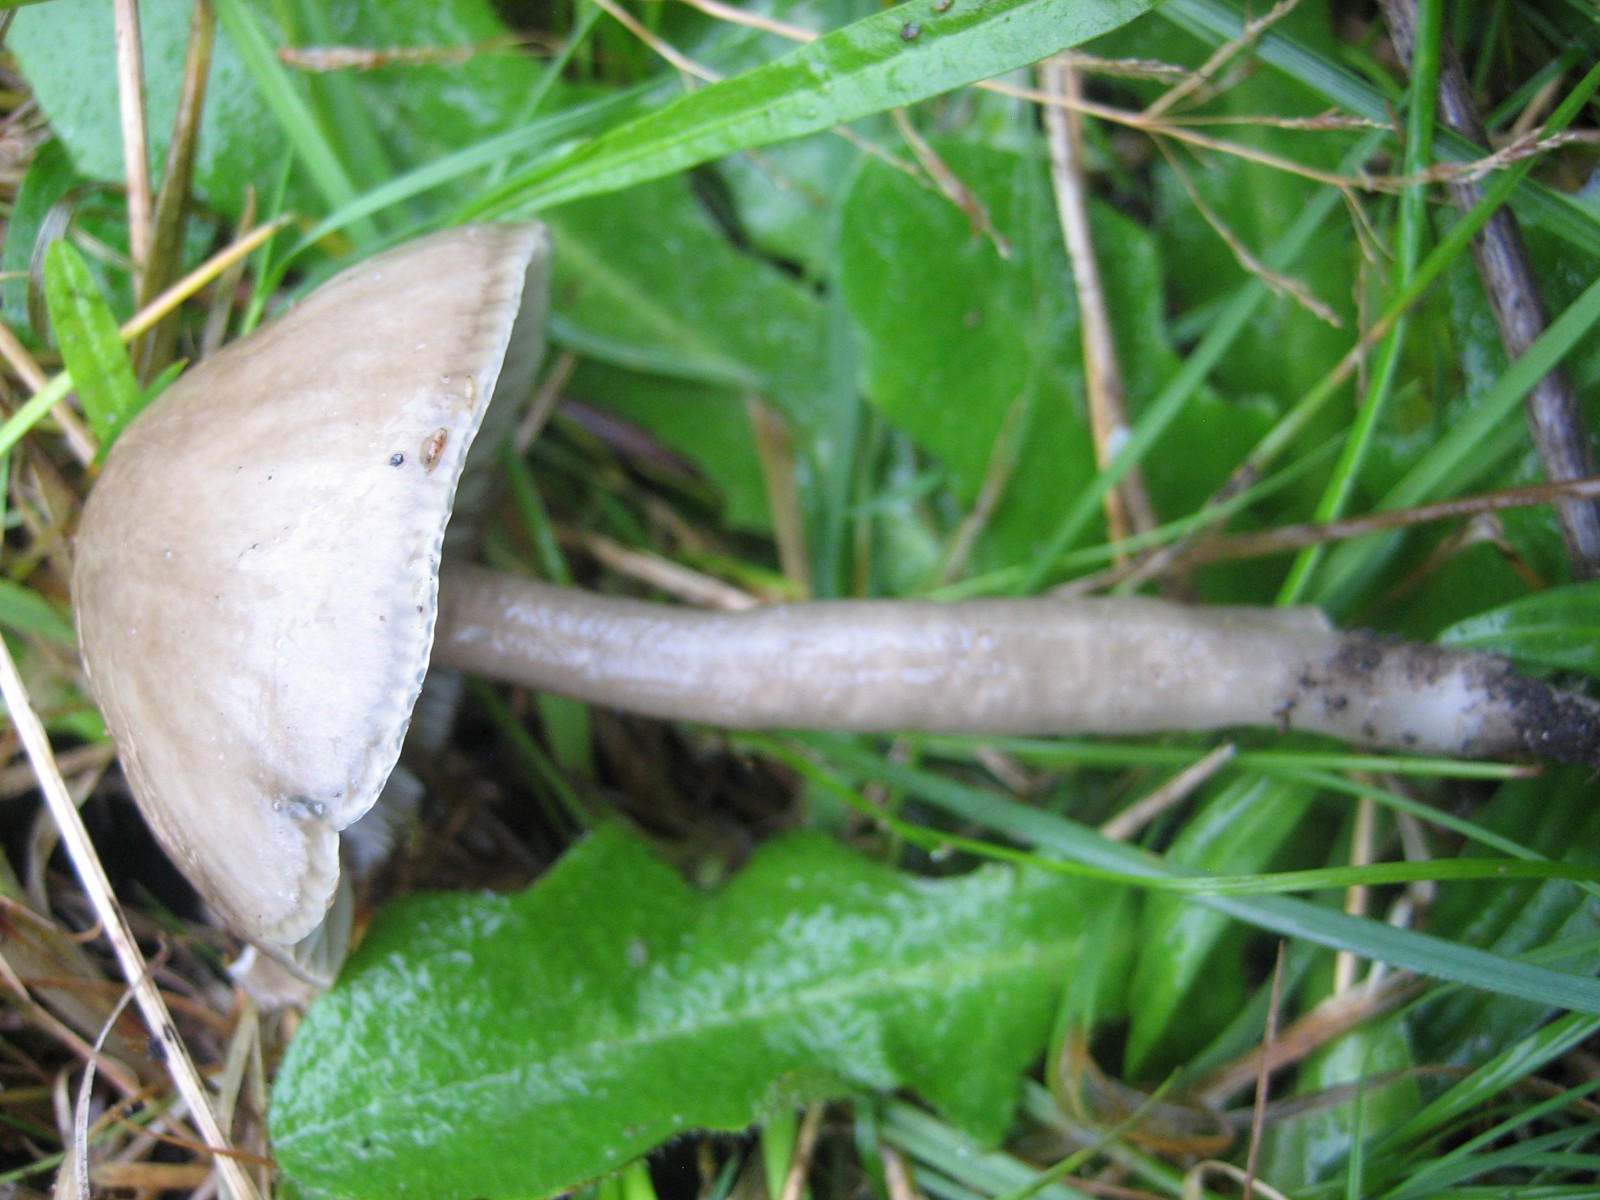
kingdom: Fungi
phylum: Basidiomycota
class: Agaricomycetes
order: Agaricales
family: Hygrophoraceae
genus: Gliophorus
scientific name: Gliophorus irrigatus
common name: slimet vokshat
